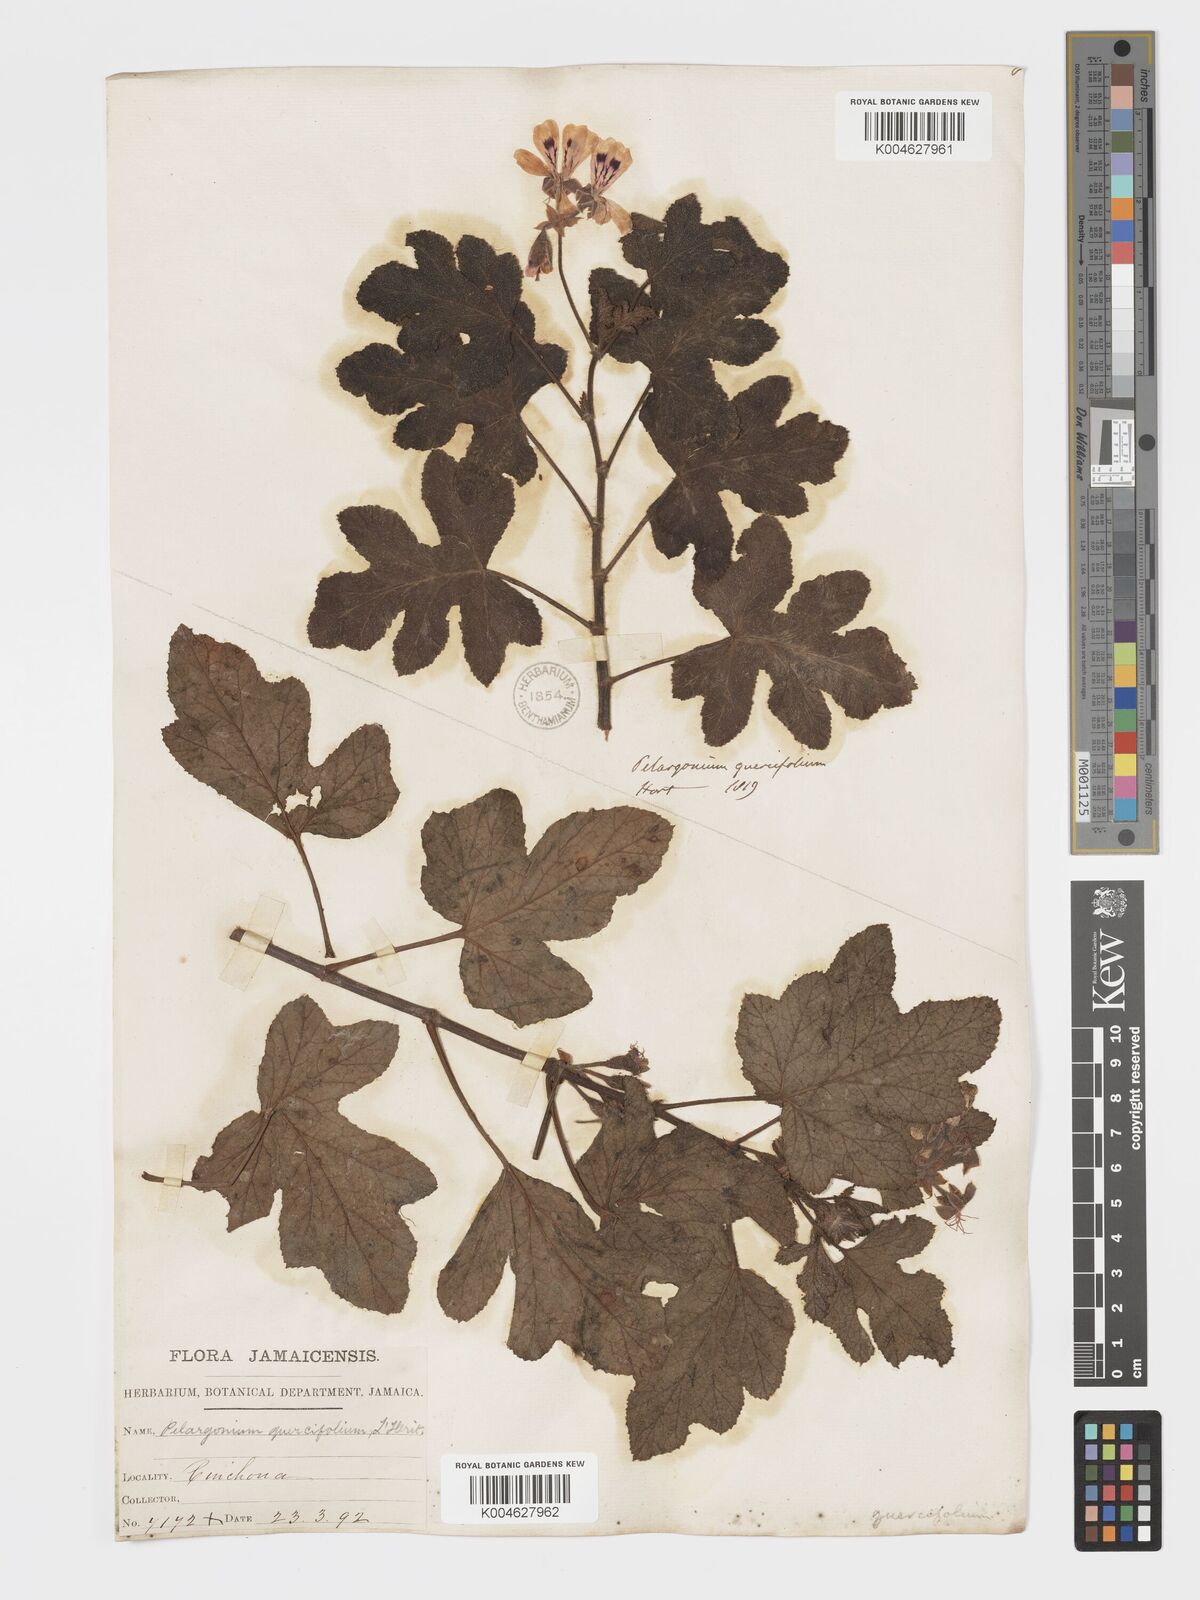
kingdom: Plantae
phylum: Tracheophyta
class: Magnoliopsida
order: Geraniales
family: Geraniaceae
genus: Pelargonium
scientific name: Pelargonium quercifolium
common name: Oakleaf geranium
